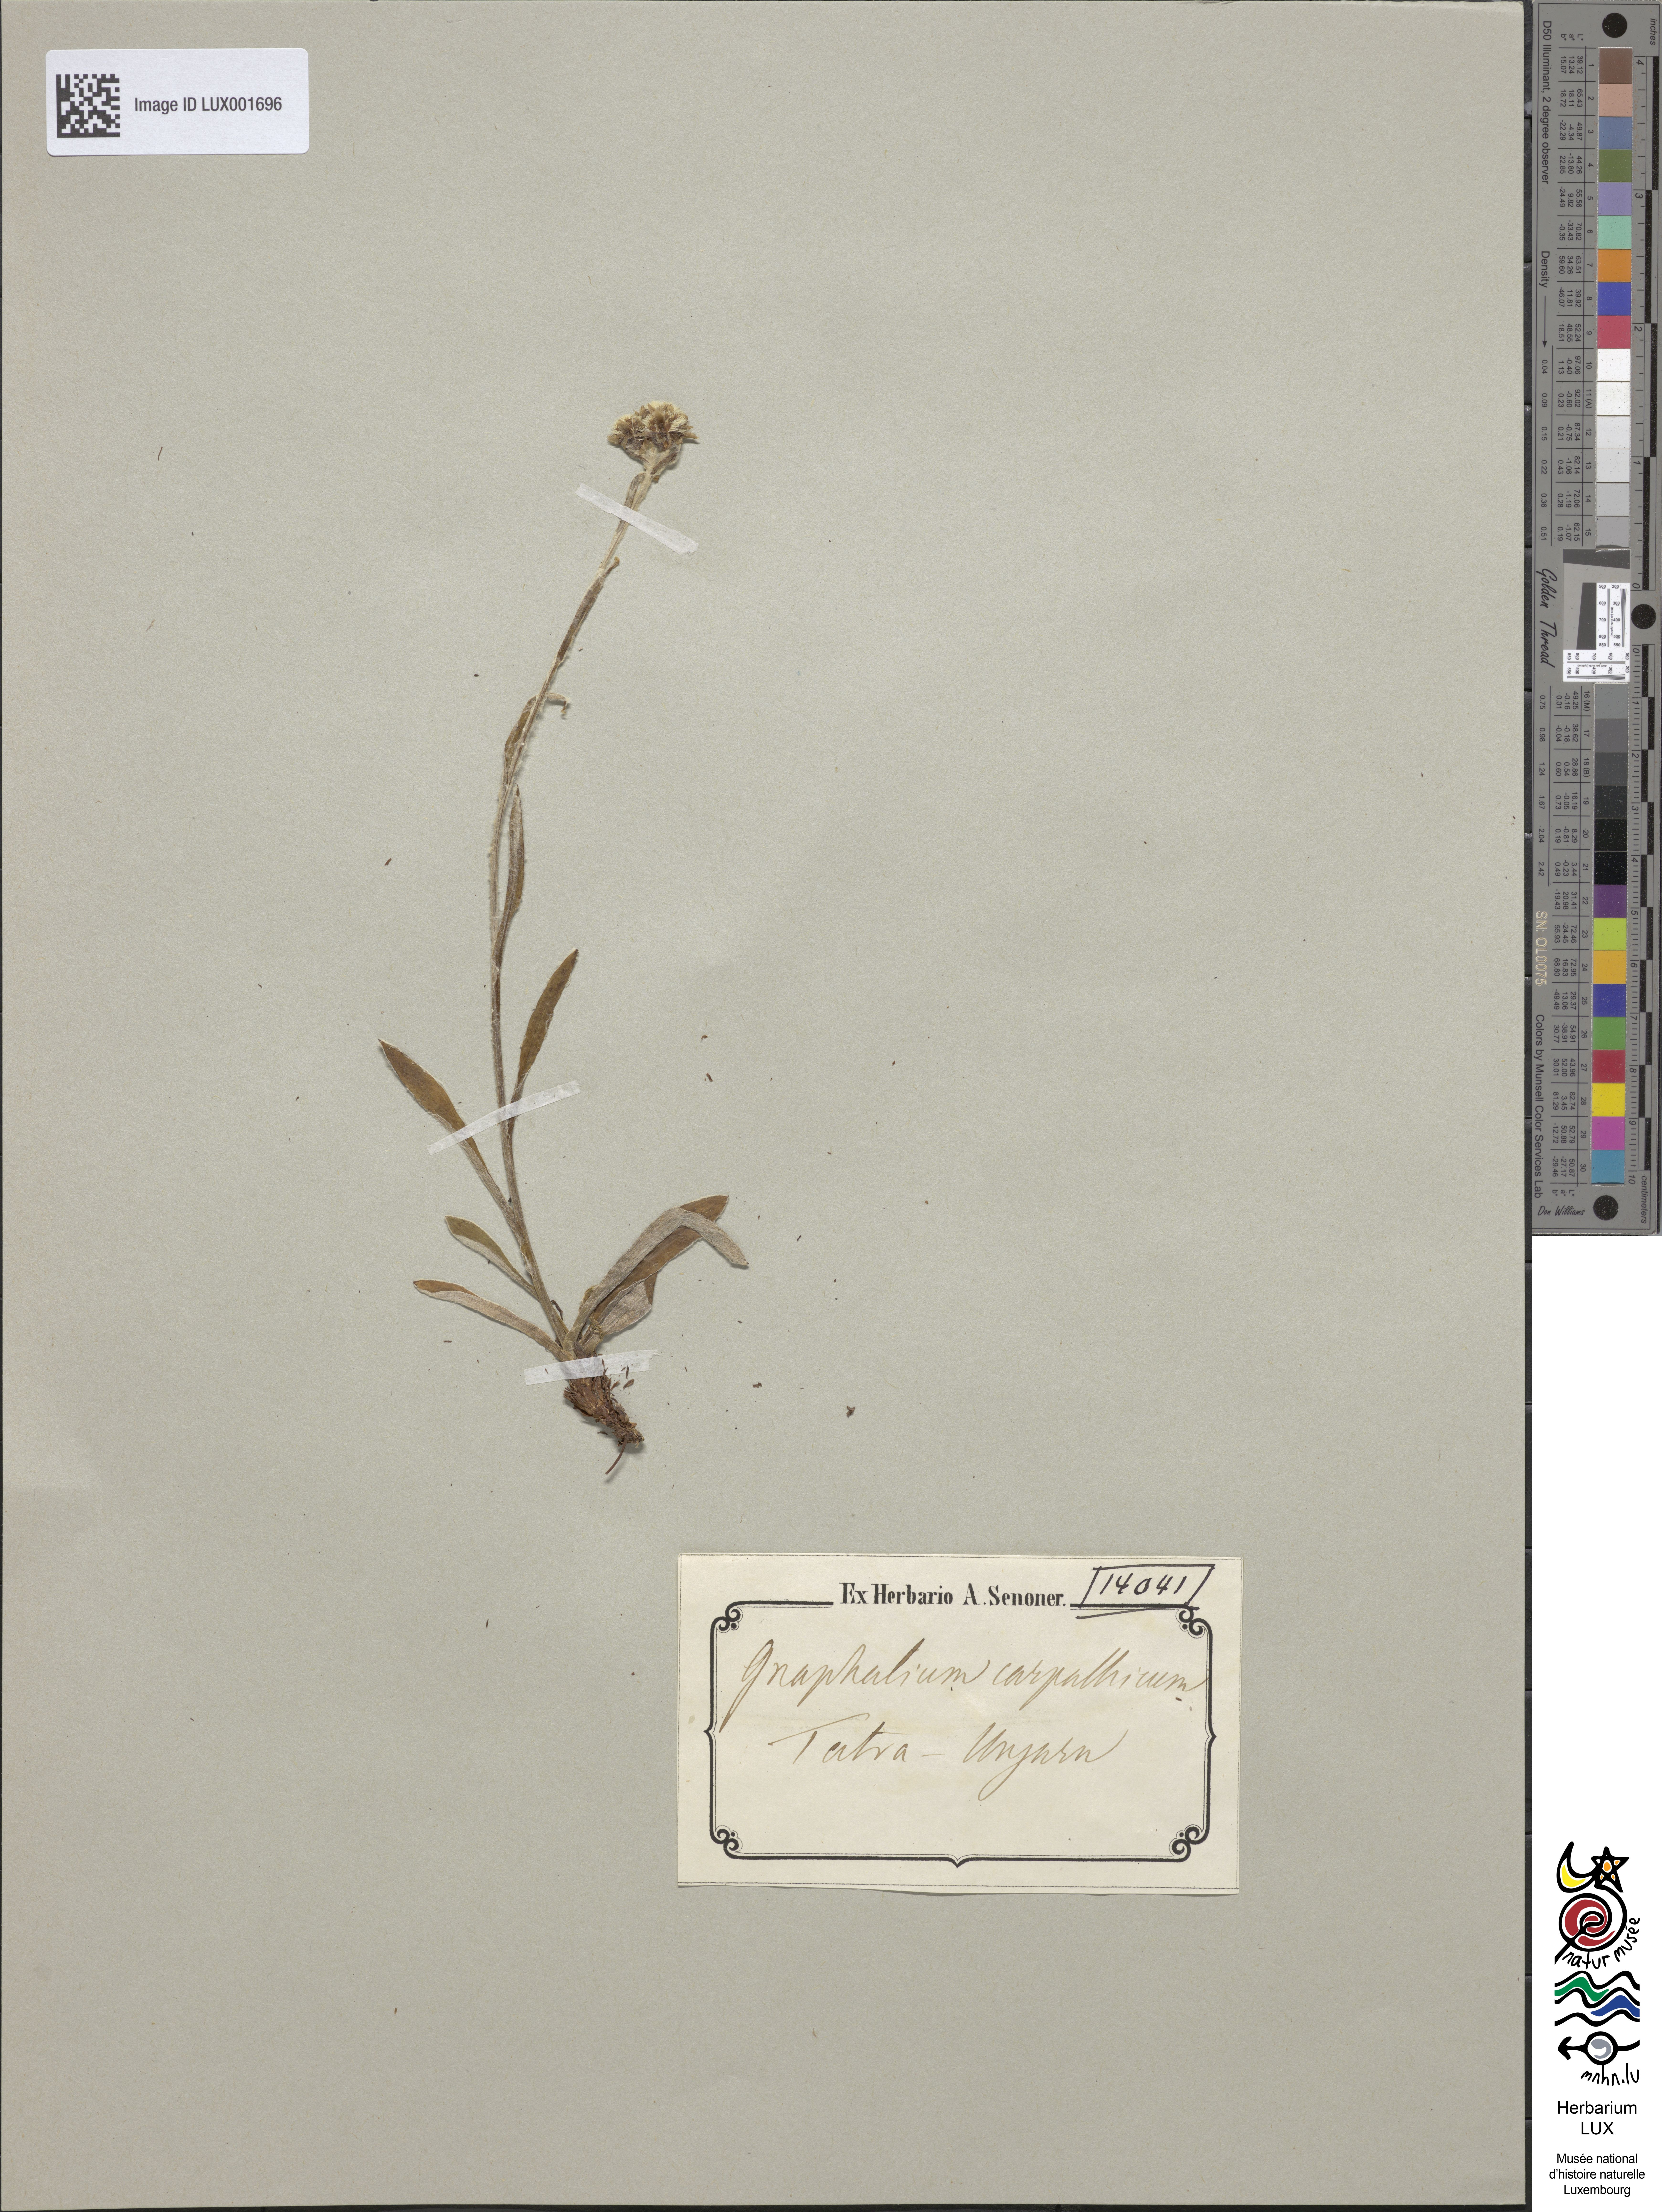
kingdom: Plantae
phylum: Tracheophyta
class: Magnoliopsida
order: Asterales
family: Asteraceae
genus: Antennaria
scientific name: Antennaria carpatica
